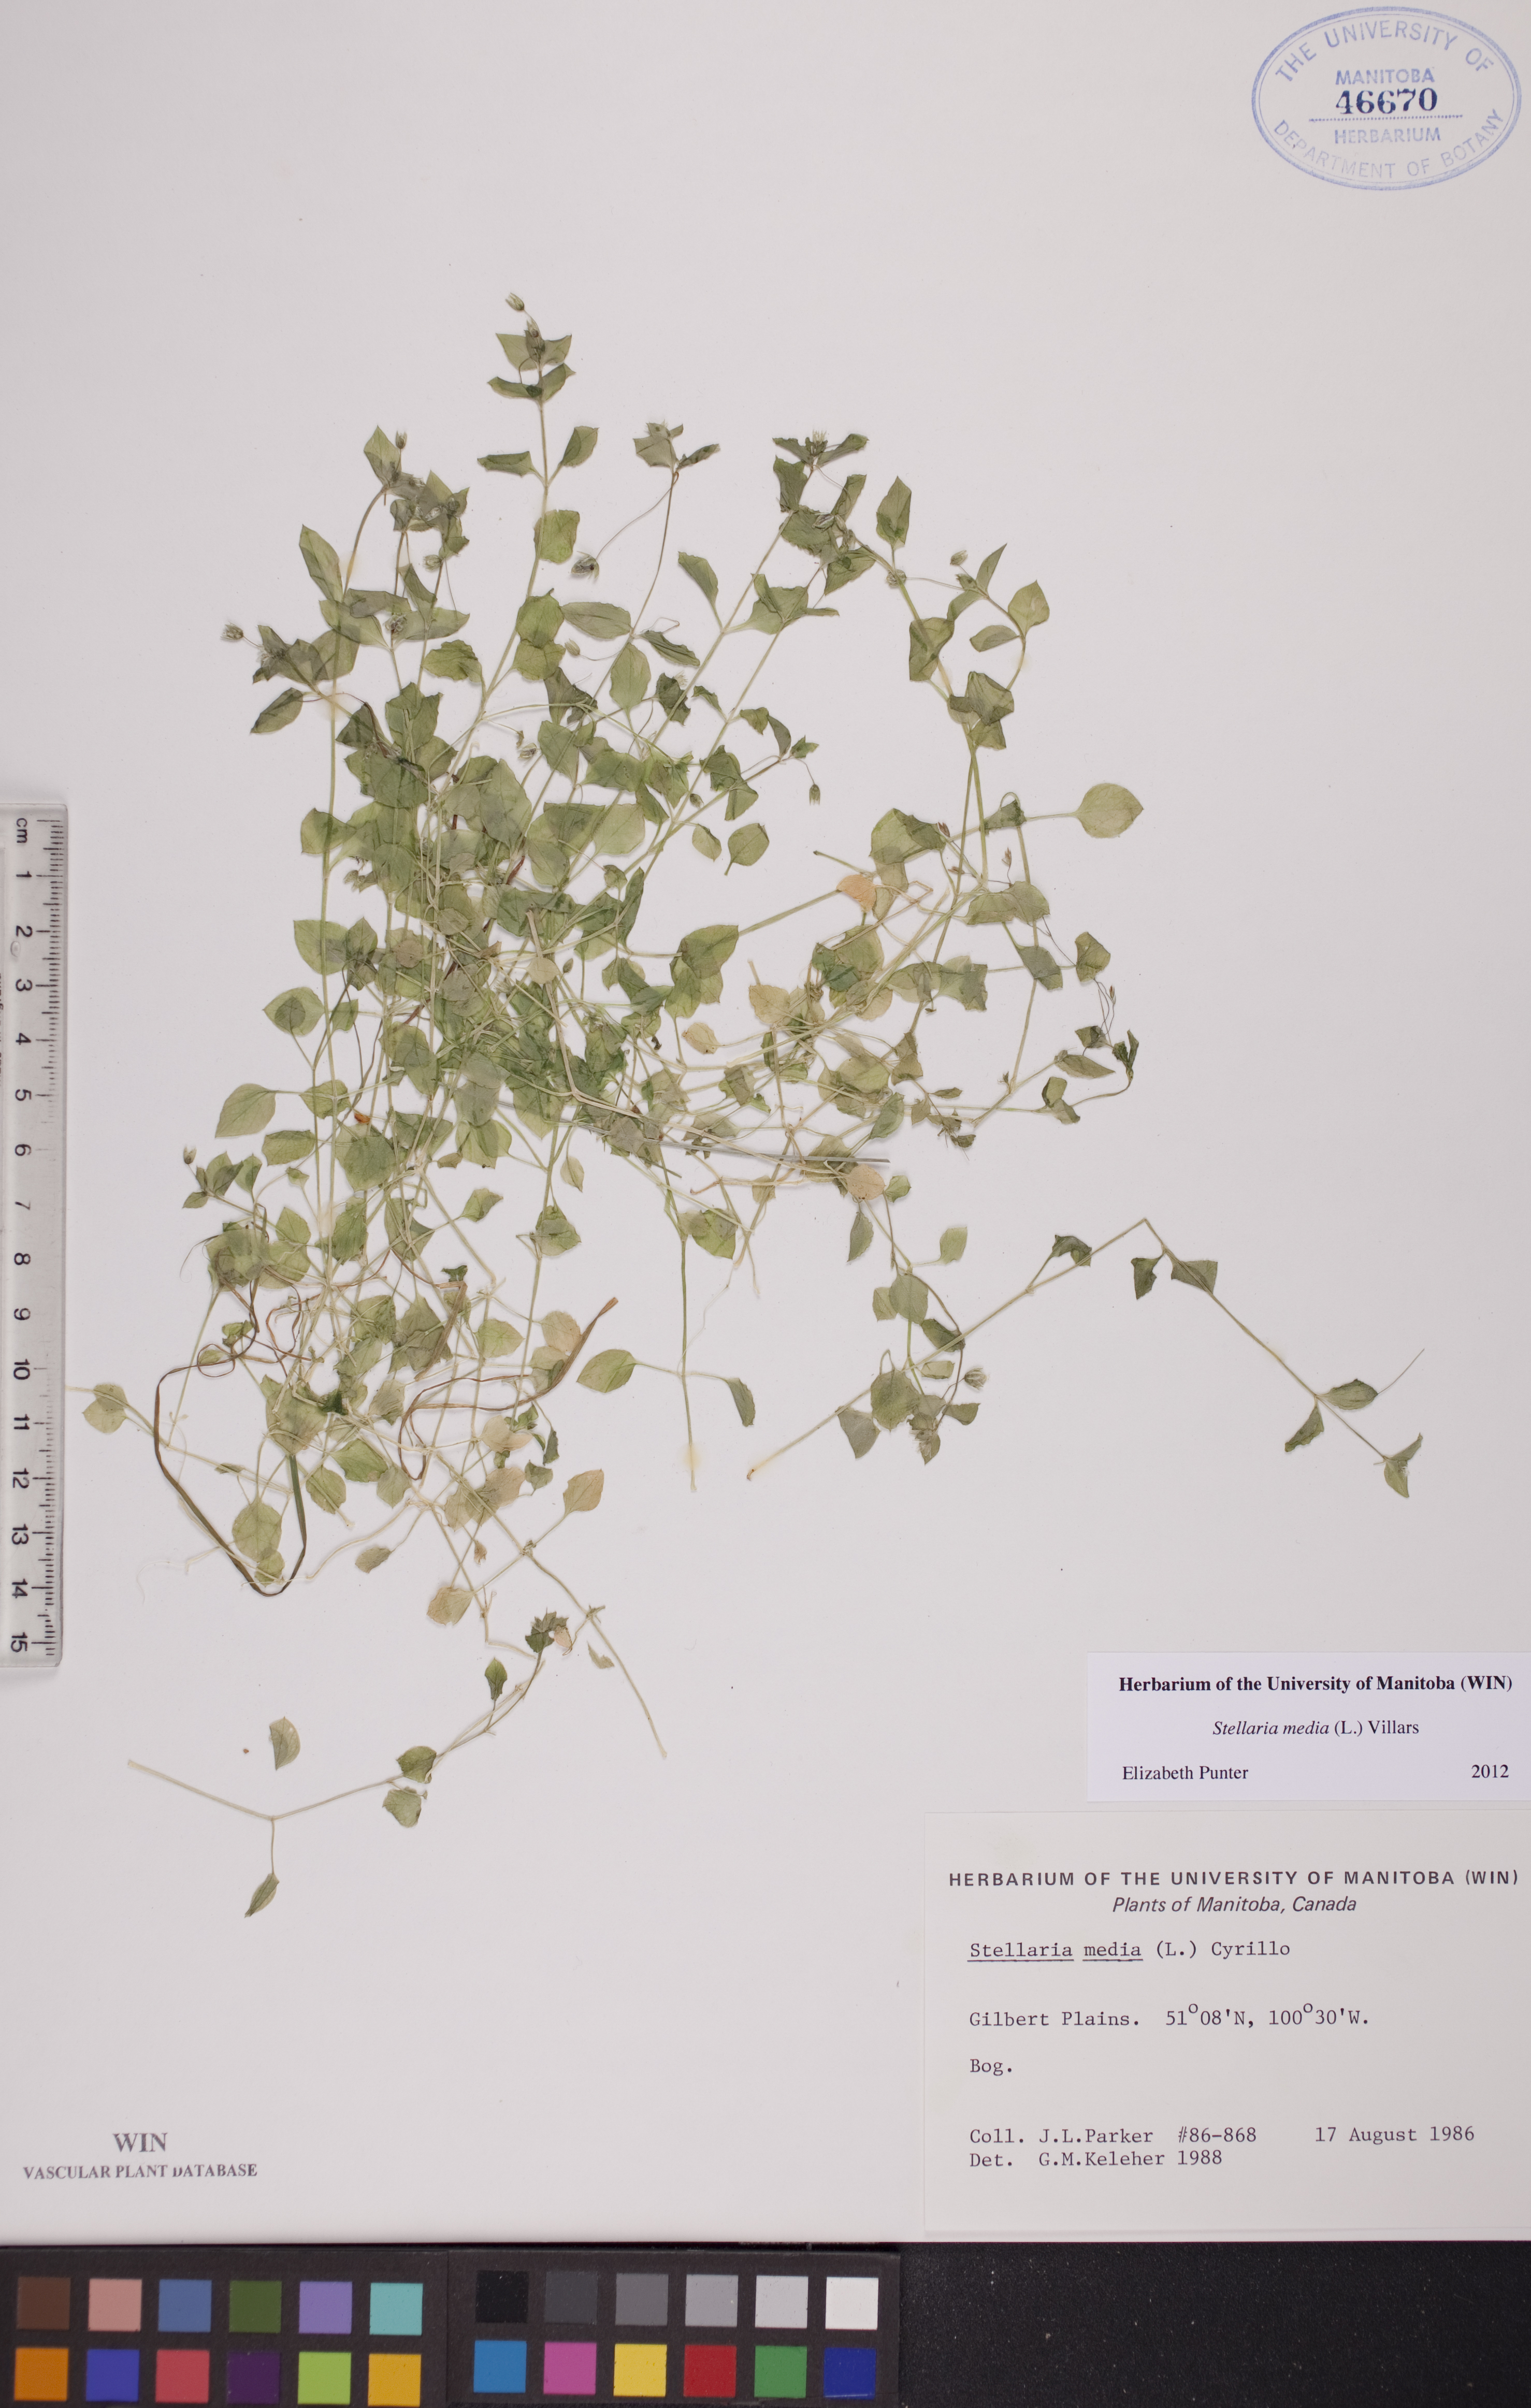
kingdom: Plantae
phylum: Tracheophyta
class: Magnoliopsida
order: Caryophyllales
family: Caryophyllaceae
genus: Stellaria
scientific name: Stellaria media
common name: Common chickweed
